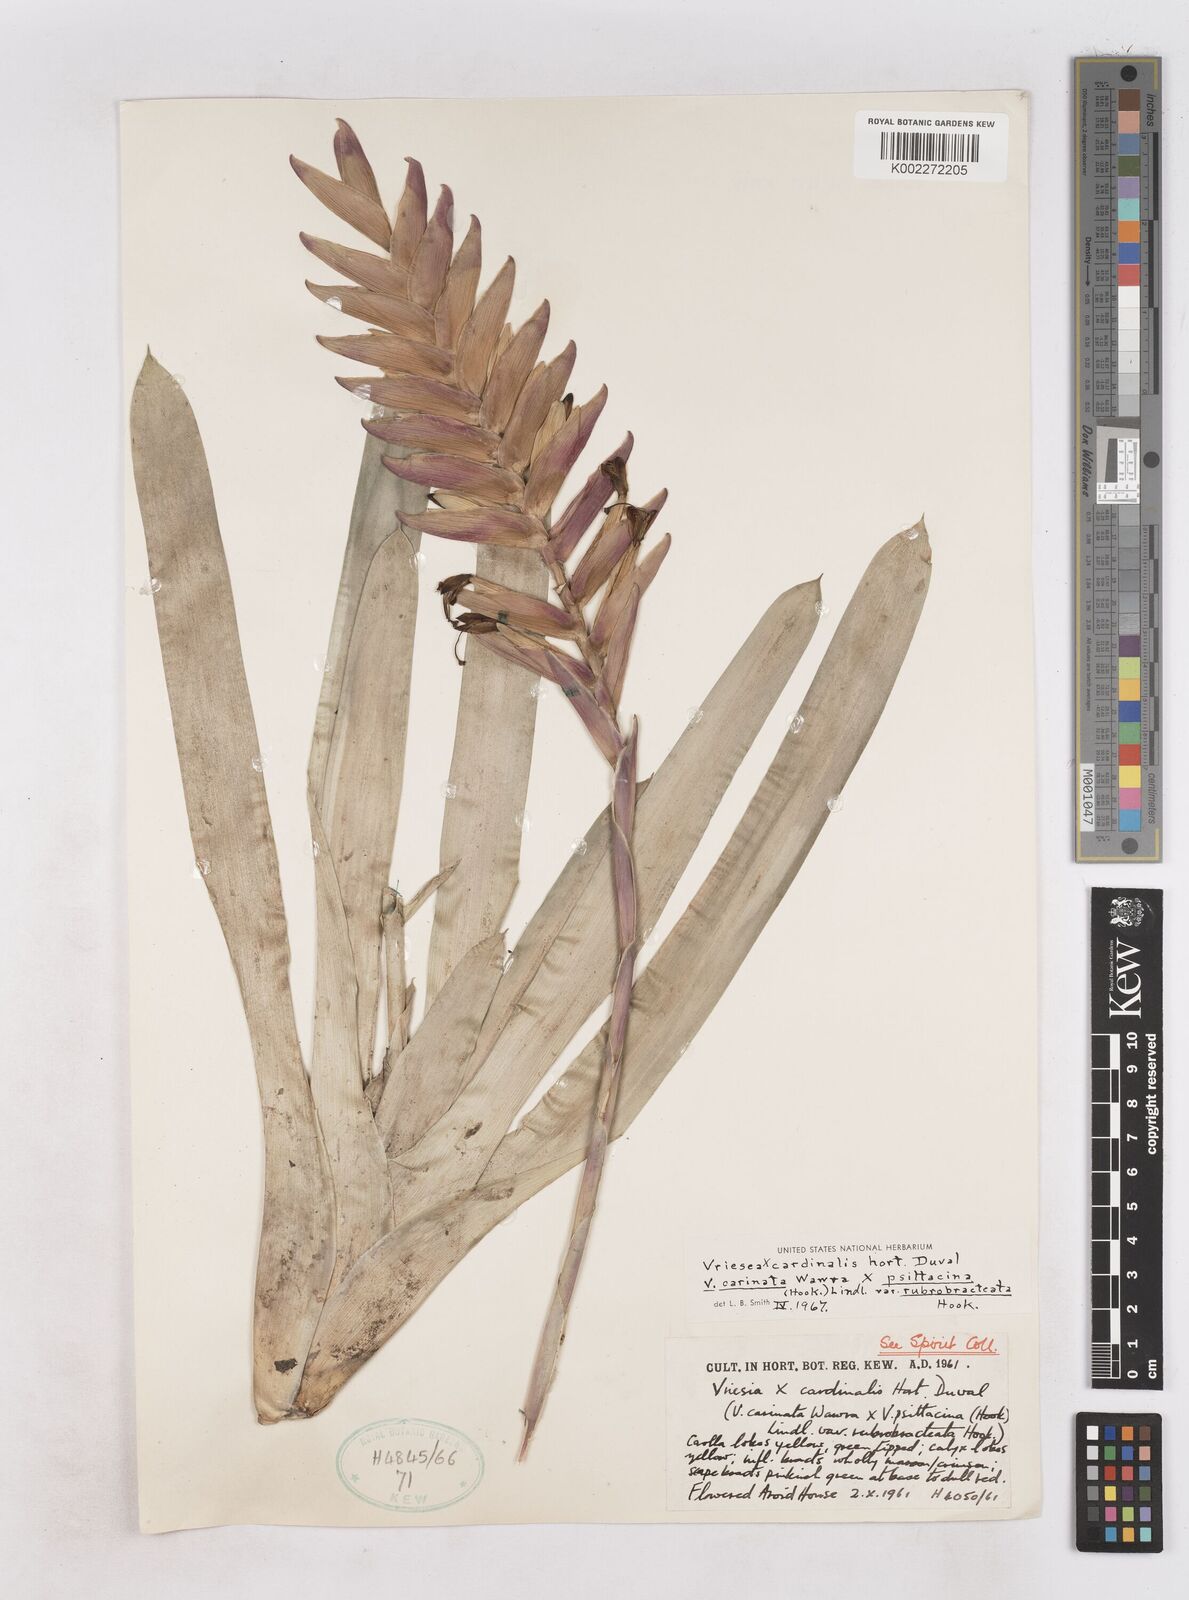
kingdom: Plantae
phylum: Tracheophyta
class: Liliopsida
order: Poales
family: Bromeliaceae
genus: Vriesea
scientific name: Vriesea cardinalis
